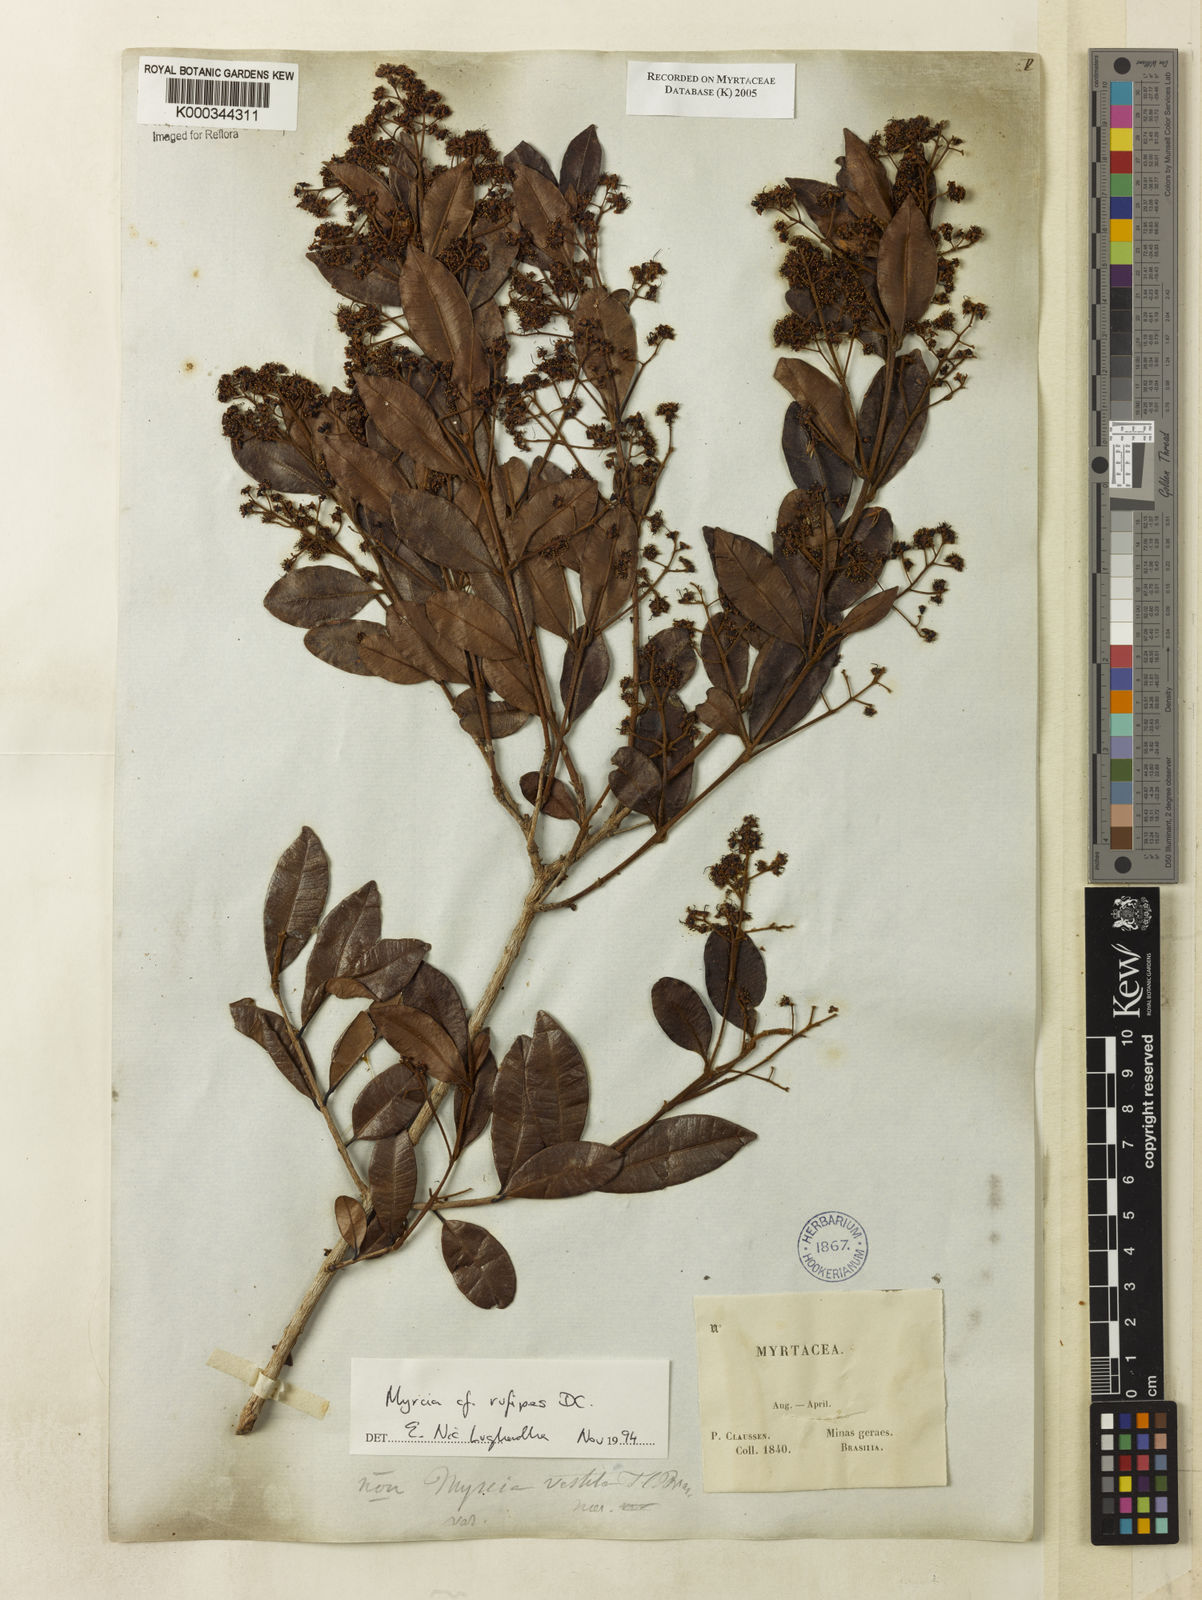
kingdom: Plantae
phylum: Tracheophyta
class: Magnoliopsida
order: Myrtales
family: Myrtaceae
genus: Myrcia
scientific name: Myrcia rufipes
